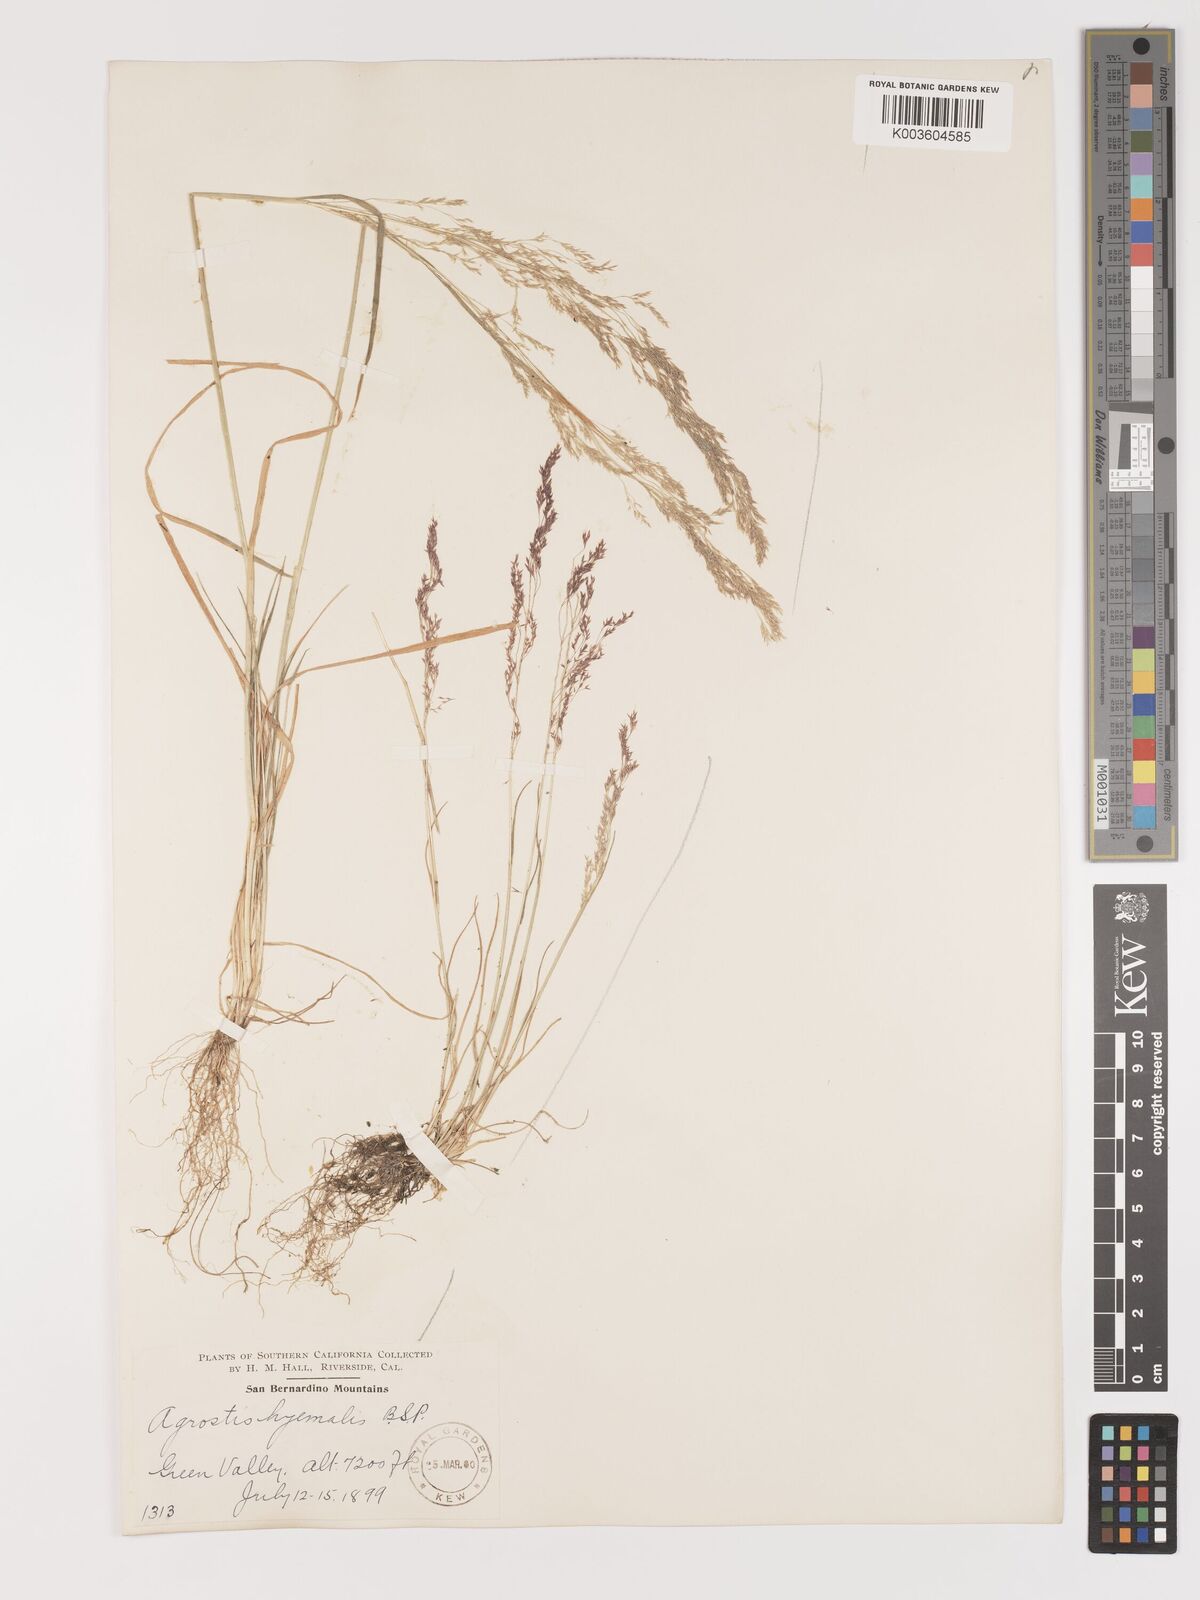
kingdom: Plantae
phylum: Tracheophyta
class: Liliopsida
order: Poales
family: Poaceae
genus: Agrostis
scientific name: Agrostis hyemalis
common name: Small bent
